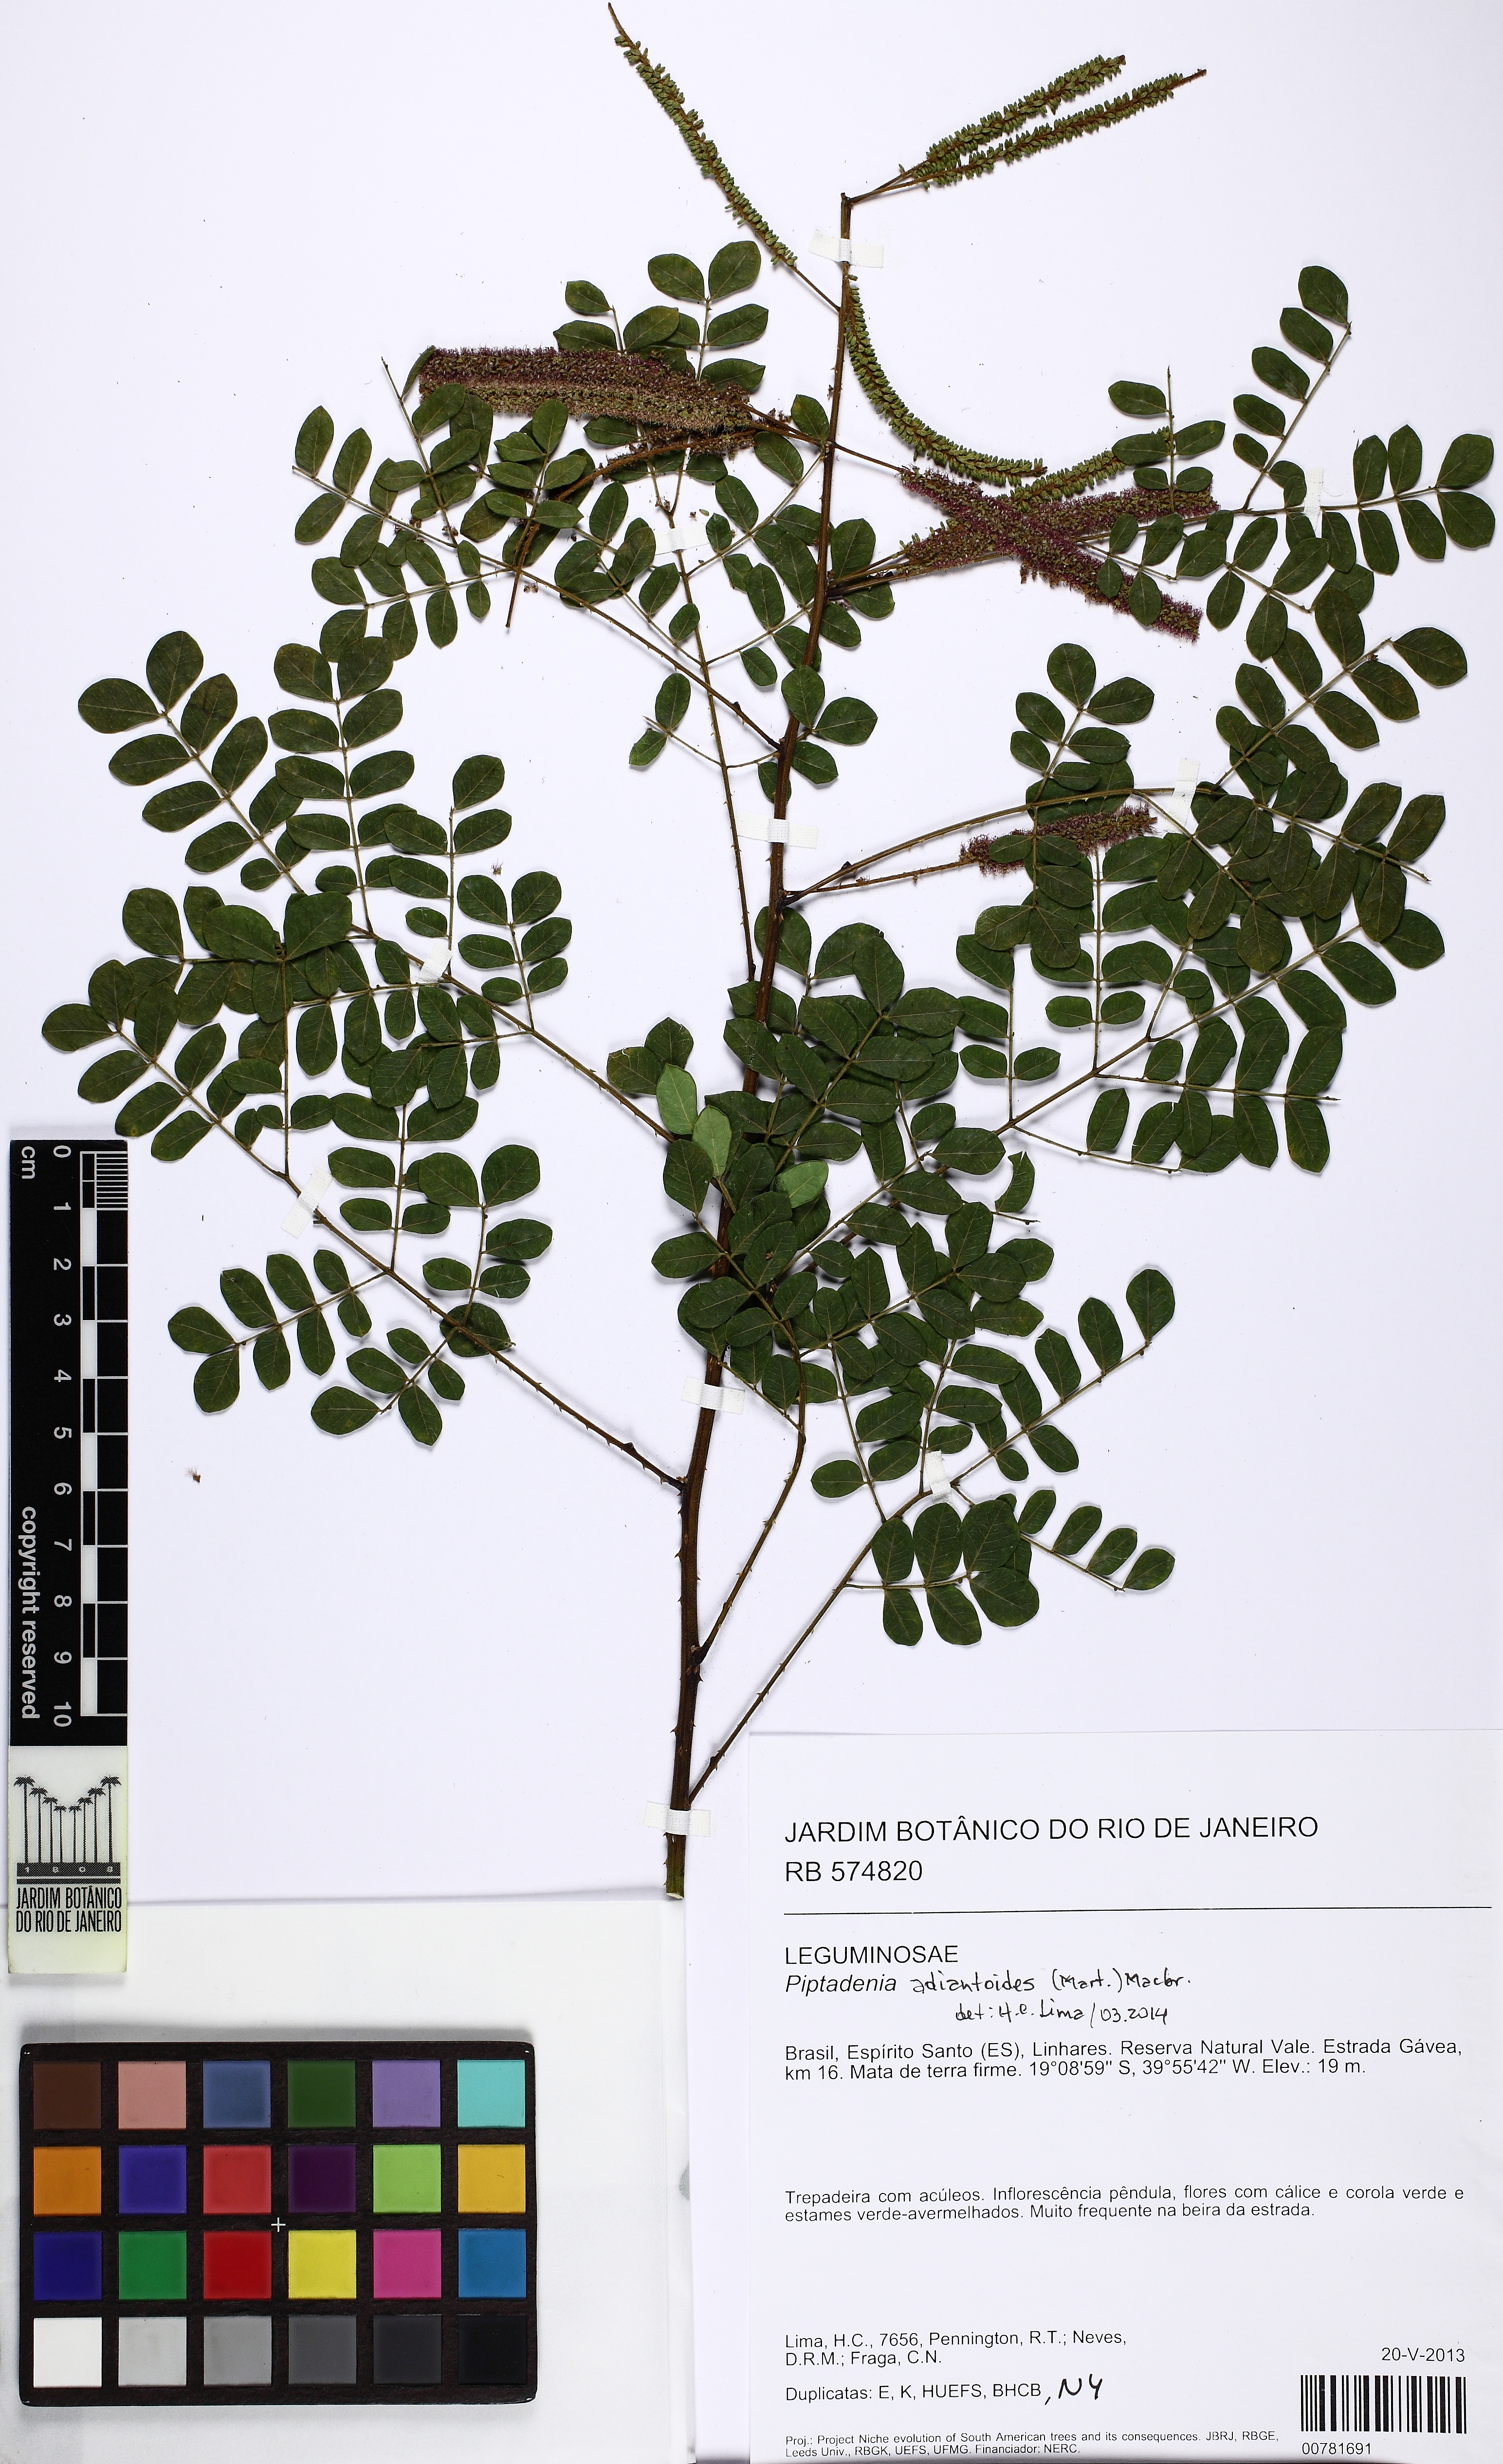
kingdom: Plantae
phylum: Tracheophyta
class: Magnoliopsida
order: Fabales
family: Fabaceae
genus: Piptadenia
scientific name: Piptadenia adiantoides
